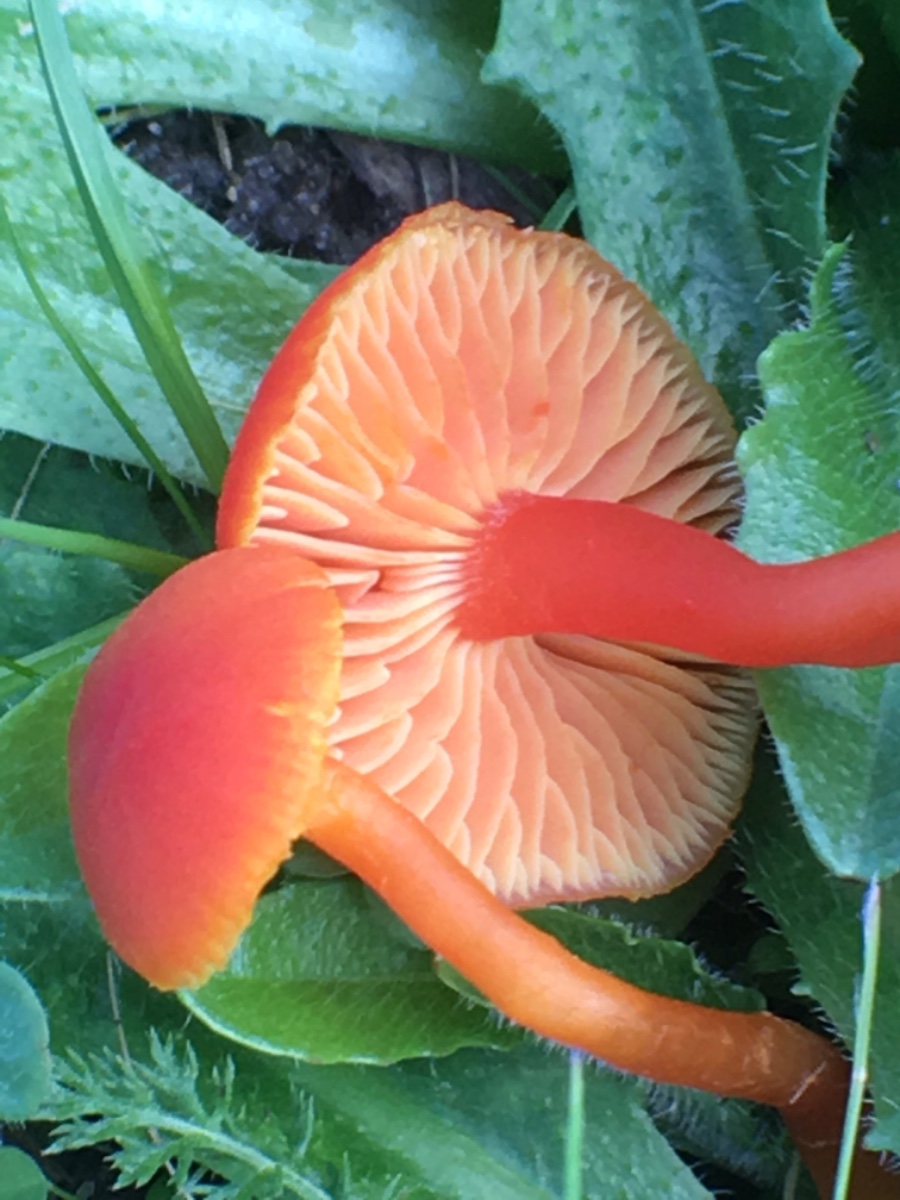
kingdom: Fungi
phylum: Basidiomycota
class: Agaricomycetes
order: Agaricales
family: Hygrophoraceae
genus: Hygrocybe
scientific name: Hygrocybe coccinea
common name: cinnober-vokshat
